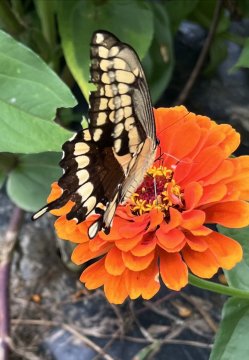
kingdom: Animalia
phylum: Arthropoda
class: Insecta
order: Lepidoptera
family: Papilionidae
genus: Papilio
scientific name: Papilio cresphontes
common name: Eastern Giant Swallowtail
